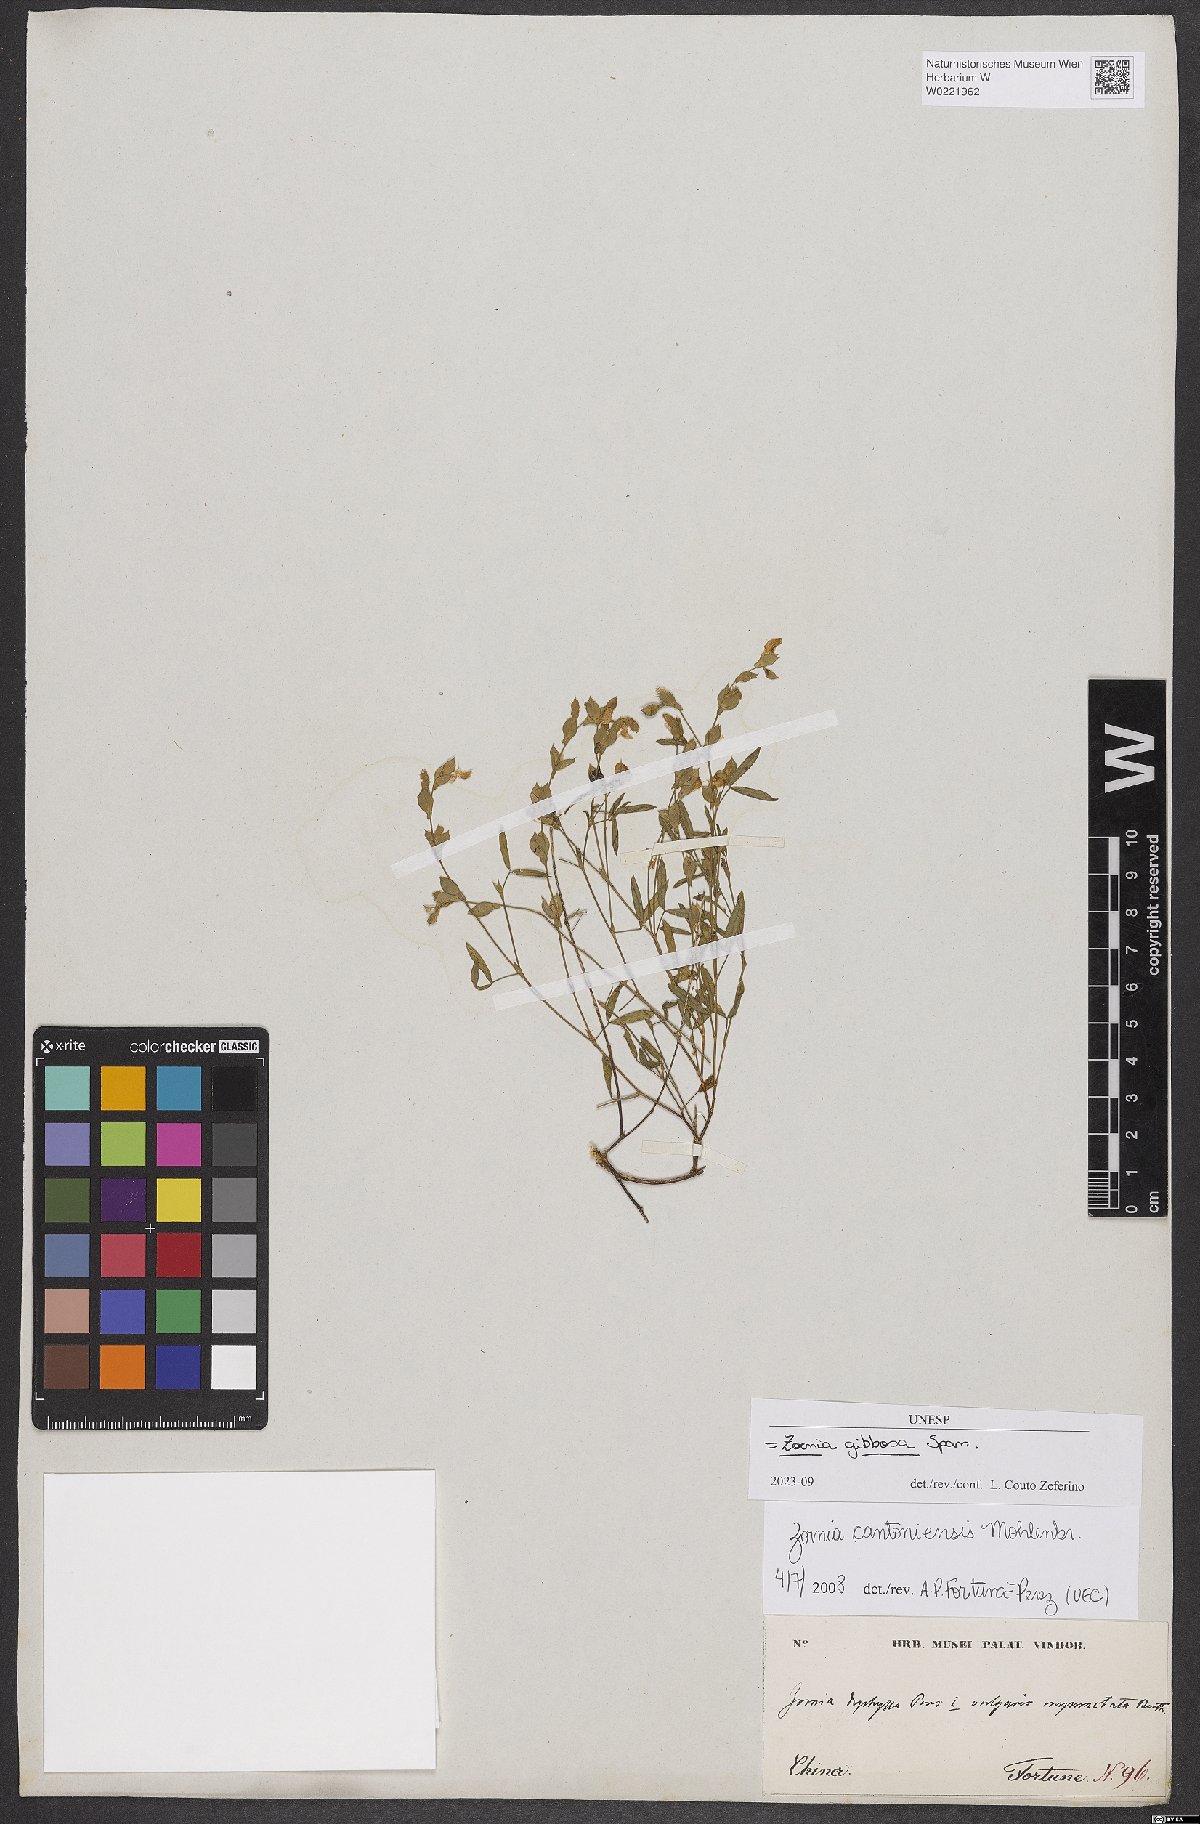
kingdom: Plantae
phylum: Tracheophyta
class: Magnoliopsida
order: Fabales
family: Fabaceae
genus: Zornia
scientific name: Zornia gibbosa
